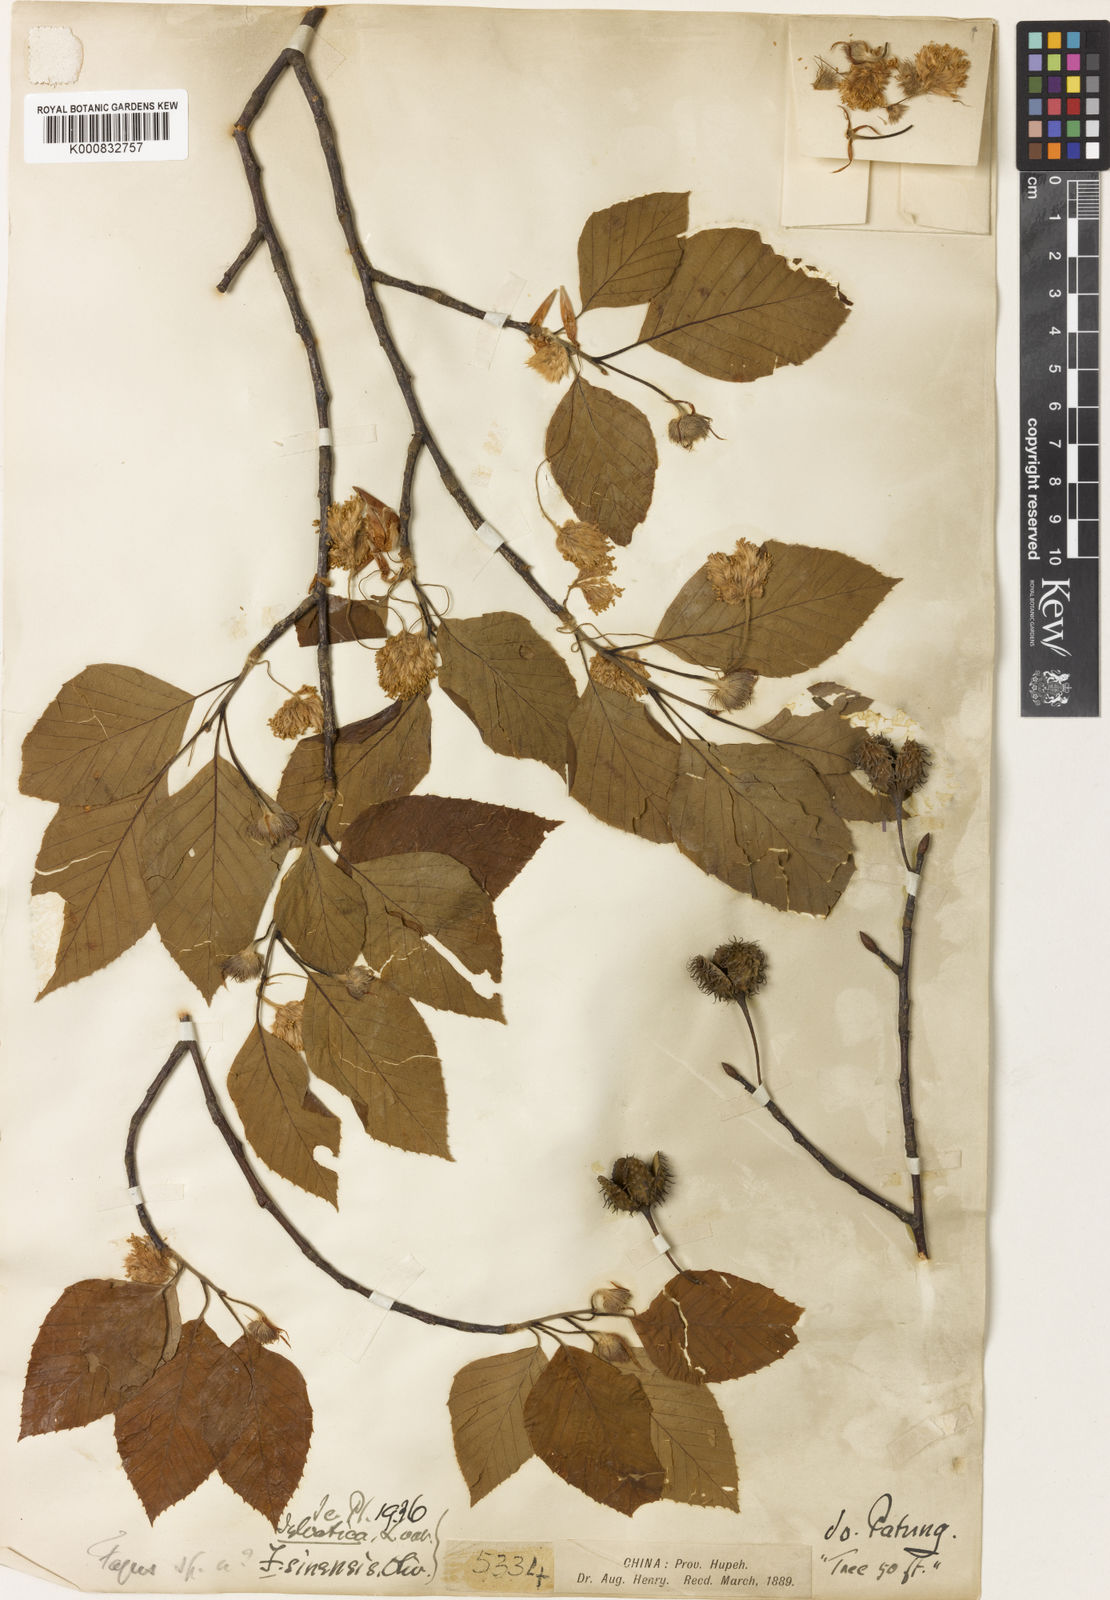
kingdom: Plantae
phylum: Tracheophyta
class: Magnoliopsida
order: Fagales
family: Fagaceae
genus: Fagus
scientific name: Fagus sinensis
